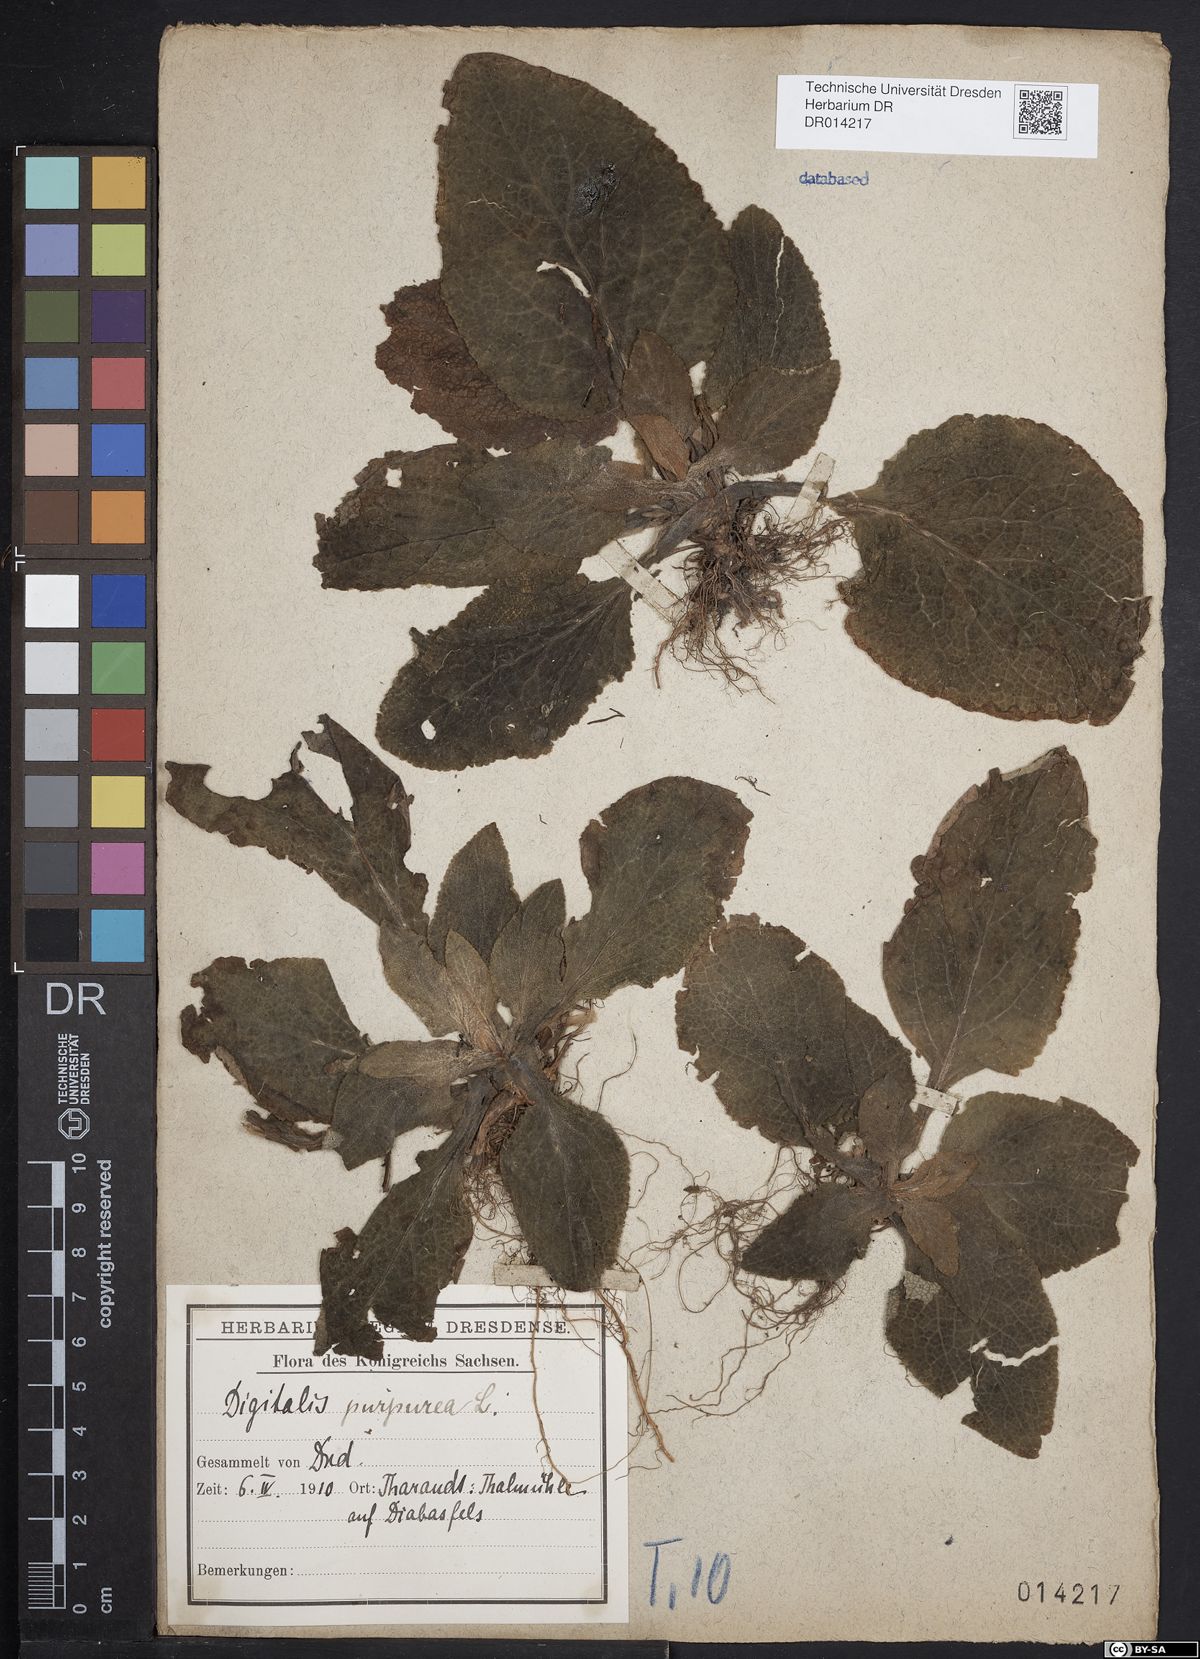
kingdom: Plantae
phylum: Tracheophyta
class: Magnoliopsida
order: Lamiales
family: Plantaginaceae
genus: Digitalis
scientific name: Digitalis purpurea
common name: Foxglove
